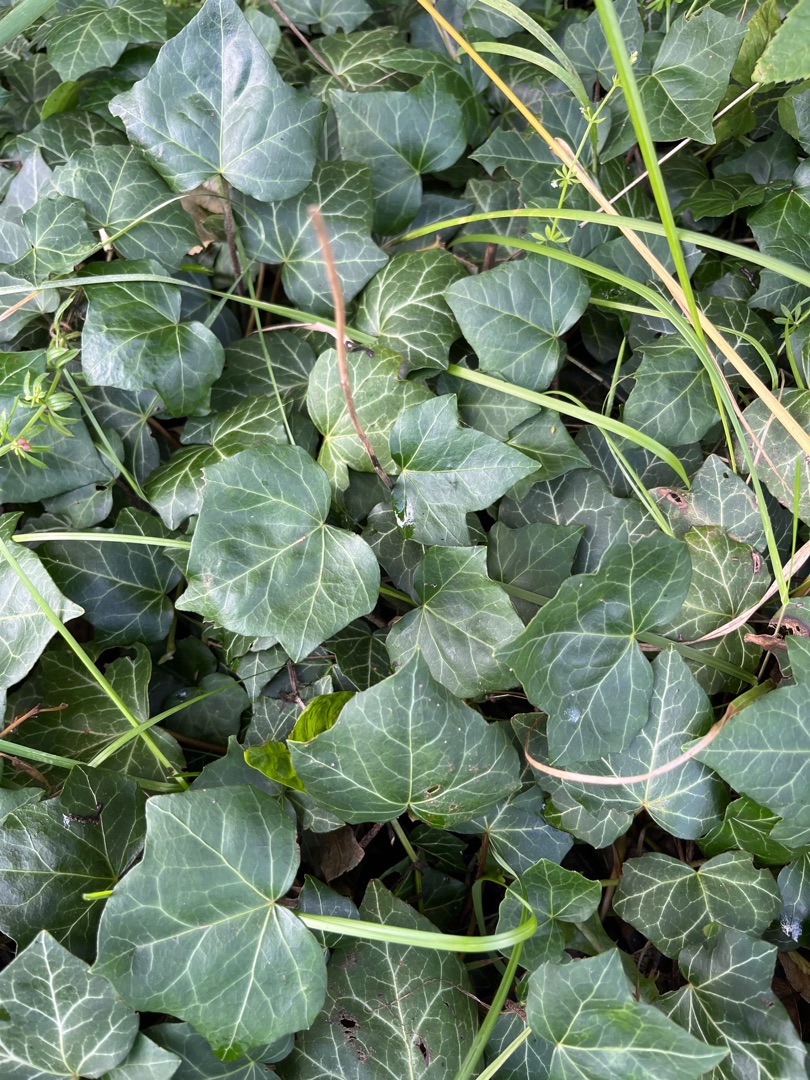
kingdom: Plantae
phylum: Tracheophyta
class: Magnoliopsida
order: Apiales
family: Araliaceae
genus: Hedera
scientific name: Hedera hibernica
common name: Irsk vedbend
